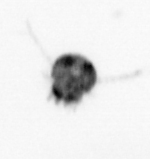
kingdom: Animalia
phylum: Arthropoda
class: Copepoda
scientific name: Copepoda
